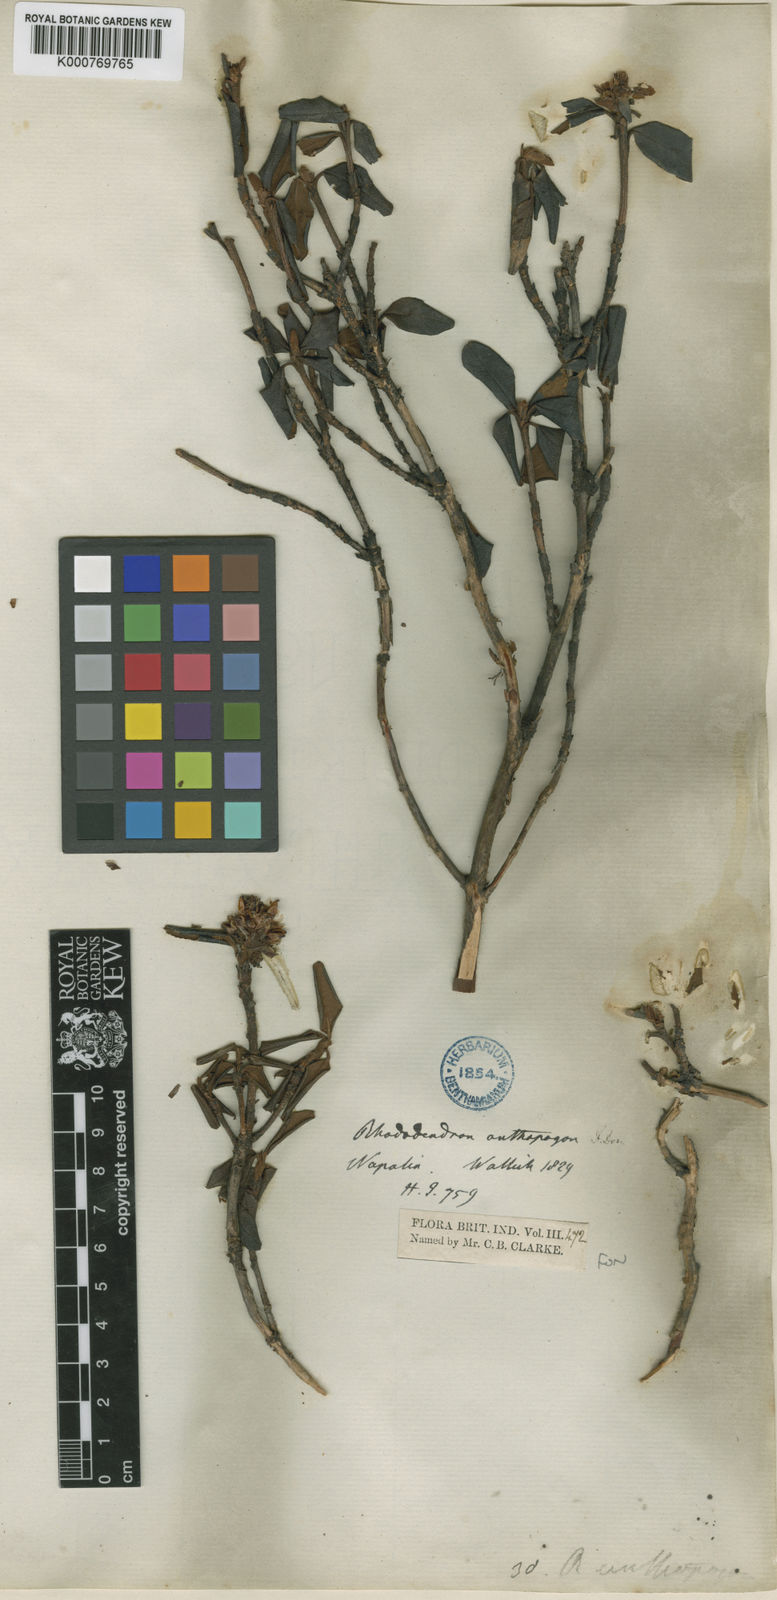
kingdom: Plantae
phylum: Tracheophyta
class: Magnoliopsida
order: Ericales
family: Ericaceae
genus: Rhododendron
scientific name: Rhododendron anthopogon
